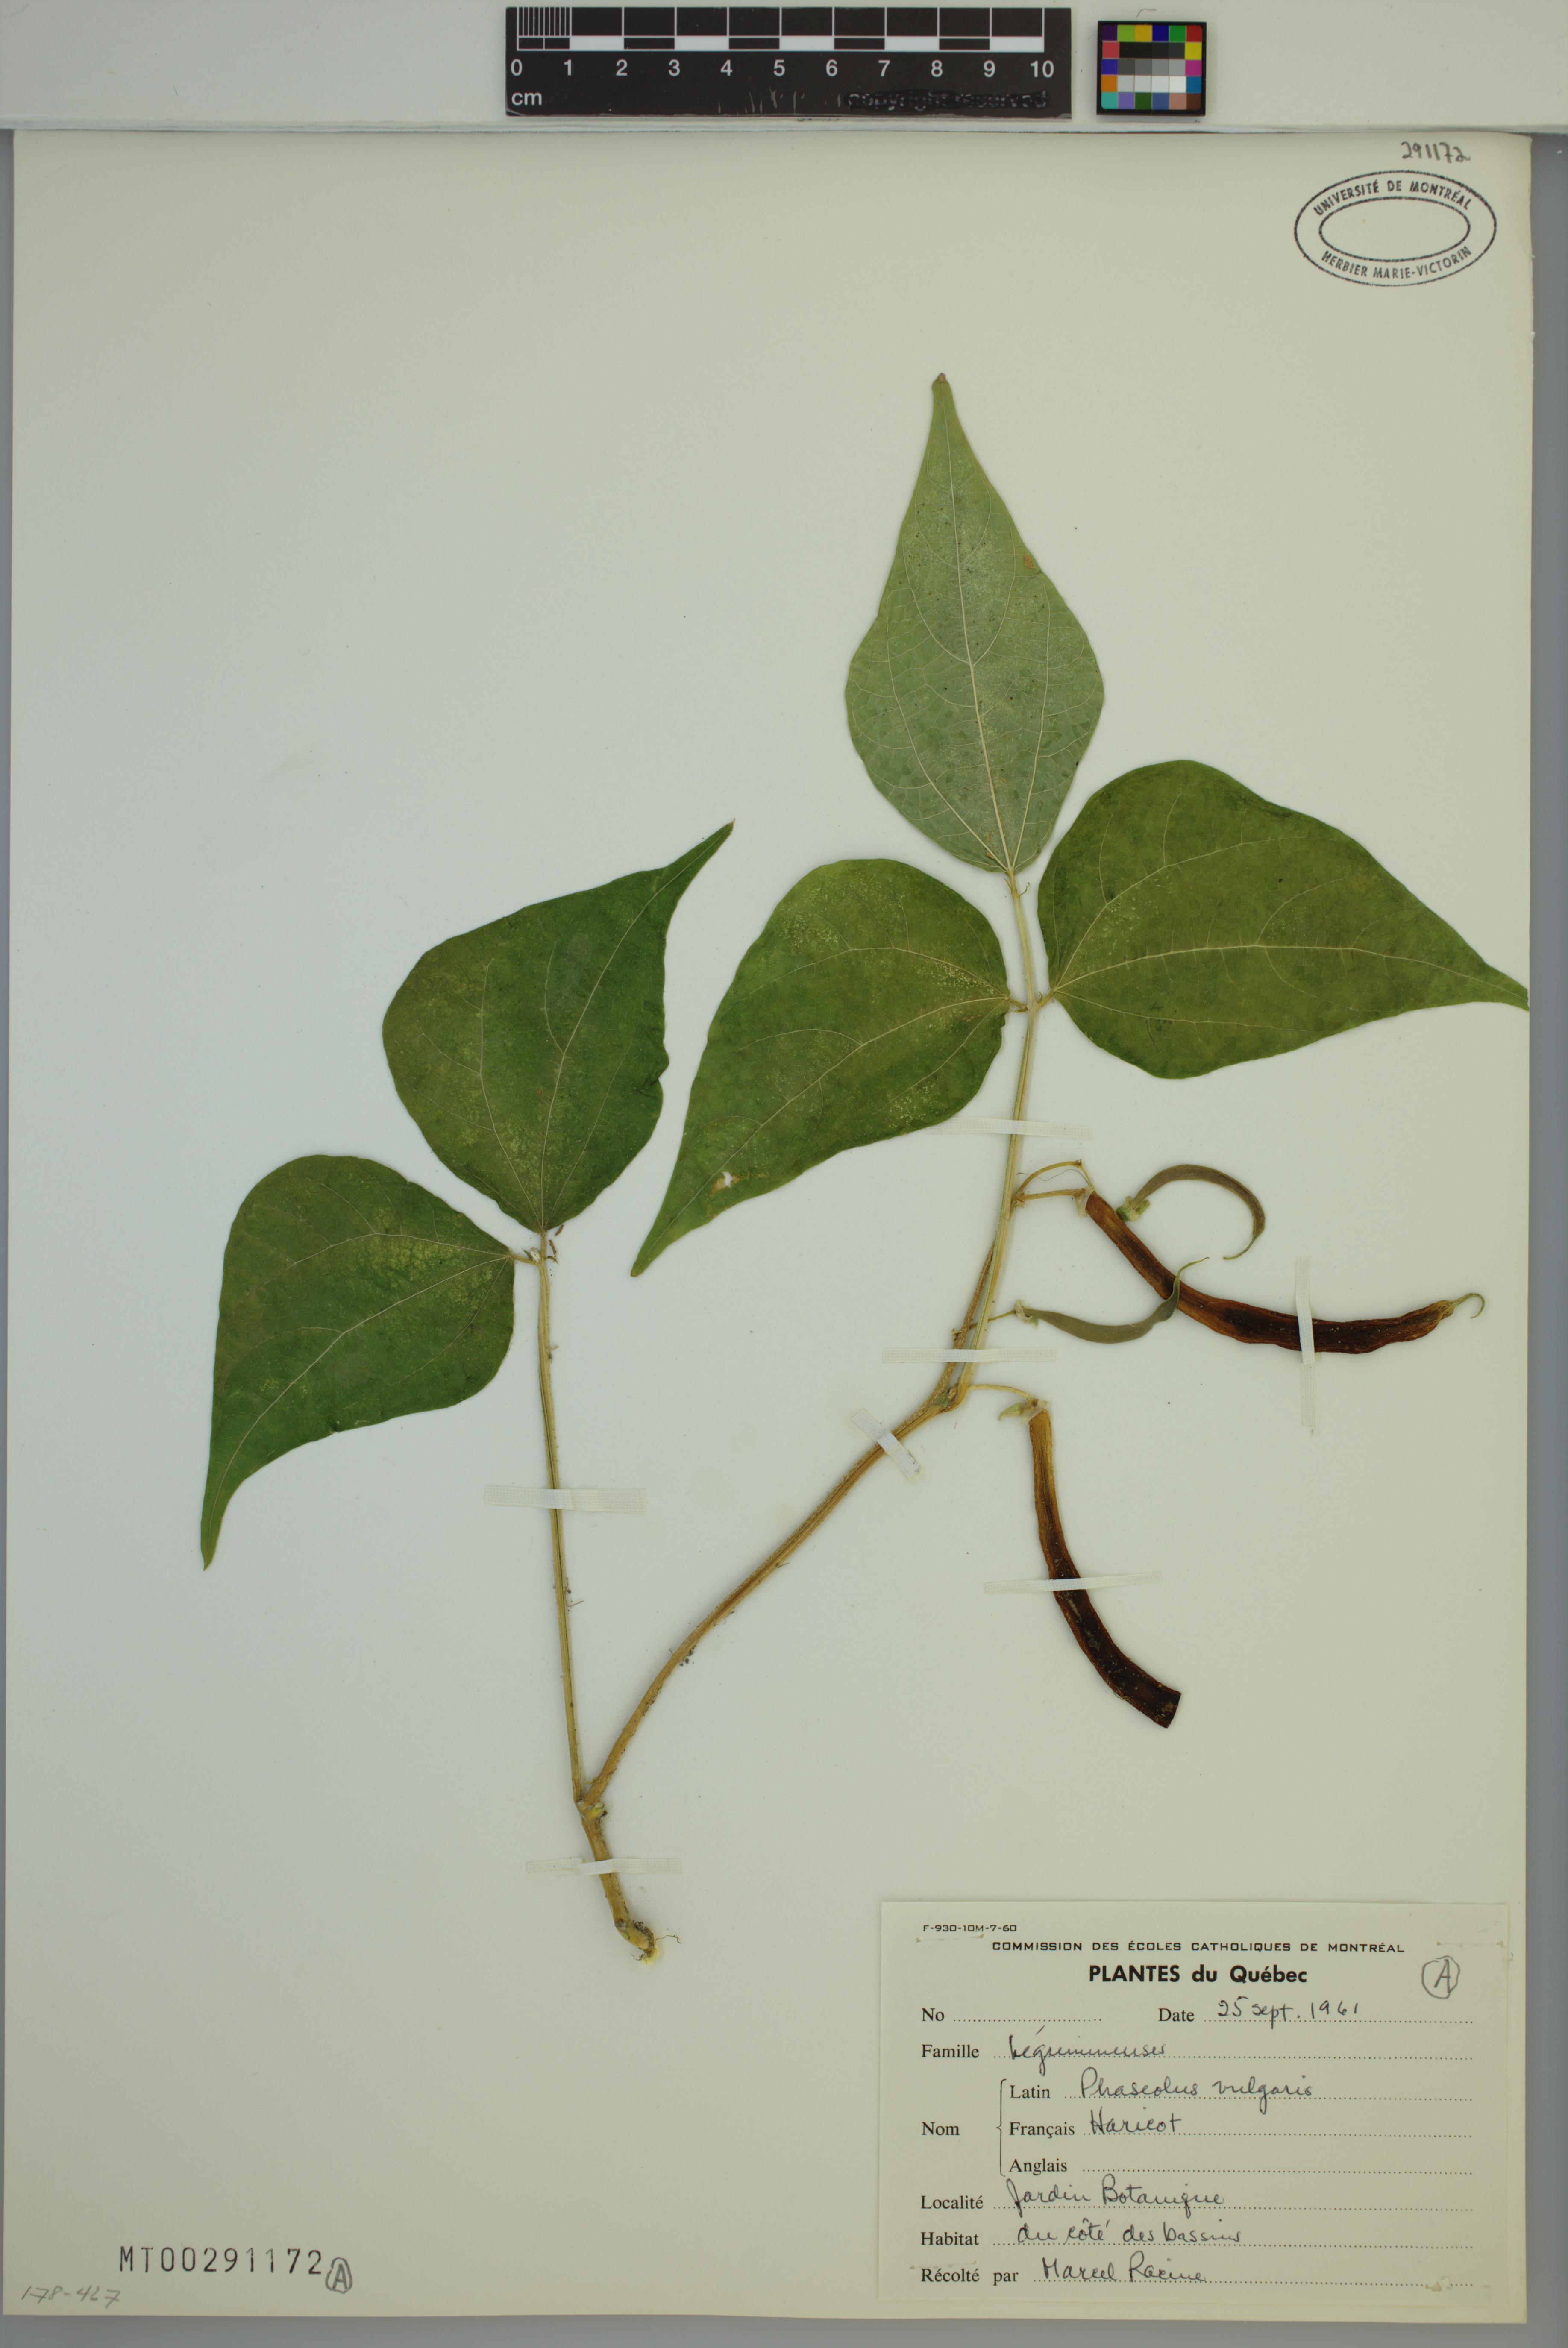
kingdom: Plantae
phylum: Tracheophyta
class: Magnoliopsida
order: Fabales
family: Fabaceae
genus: Phaseolus
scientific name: Phaseolus vulgaris
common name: Bean
